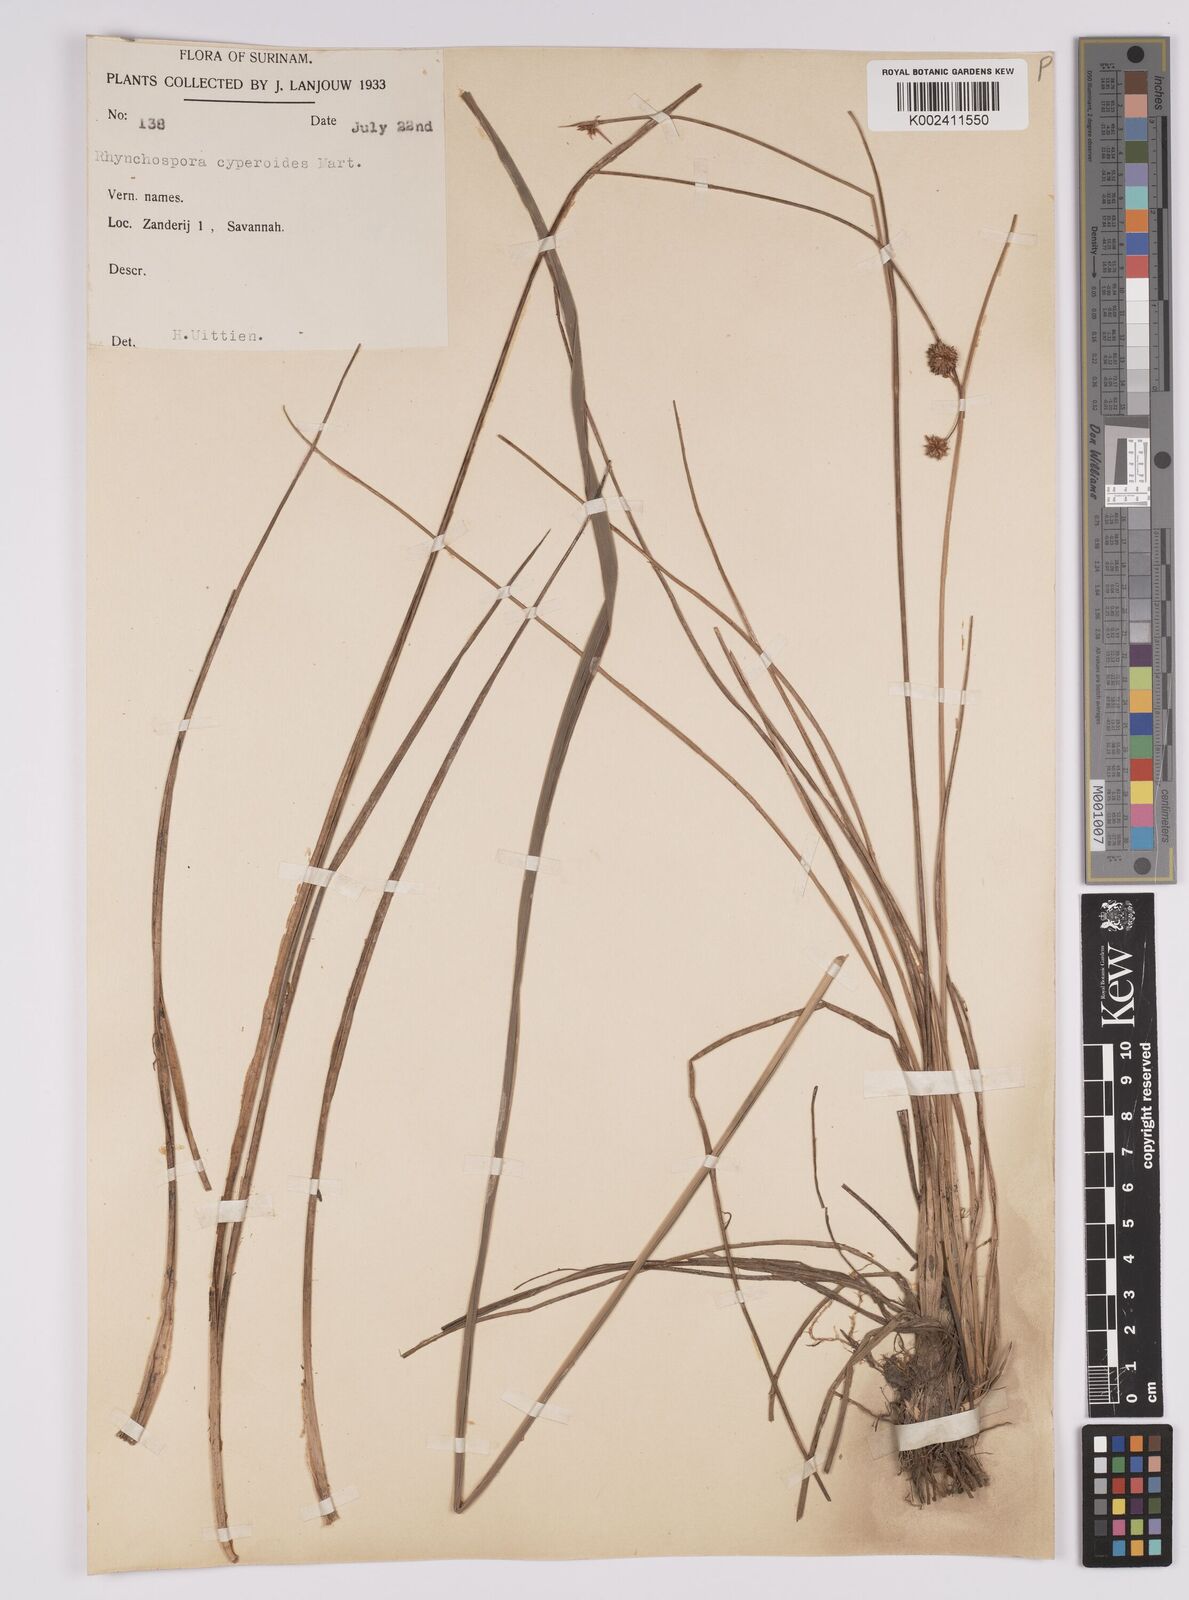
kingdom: Plantae
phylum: Tracheophyta
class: Liliopsida
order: Poales
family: Cyperaceae
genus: Rhynchospora
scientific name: Rhynchospora holoschoenoides
